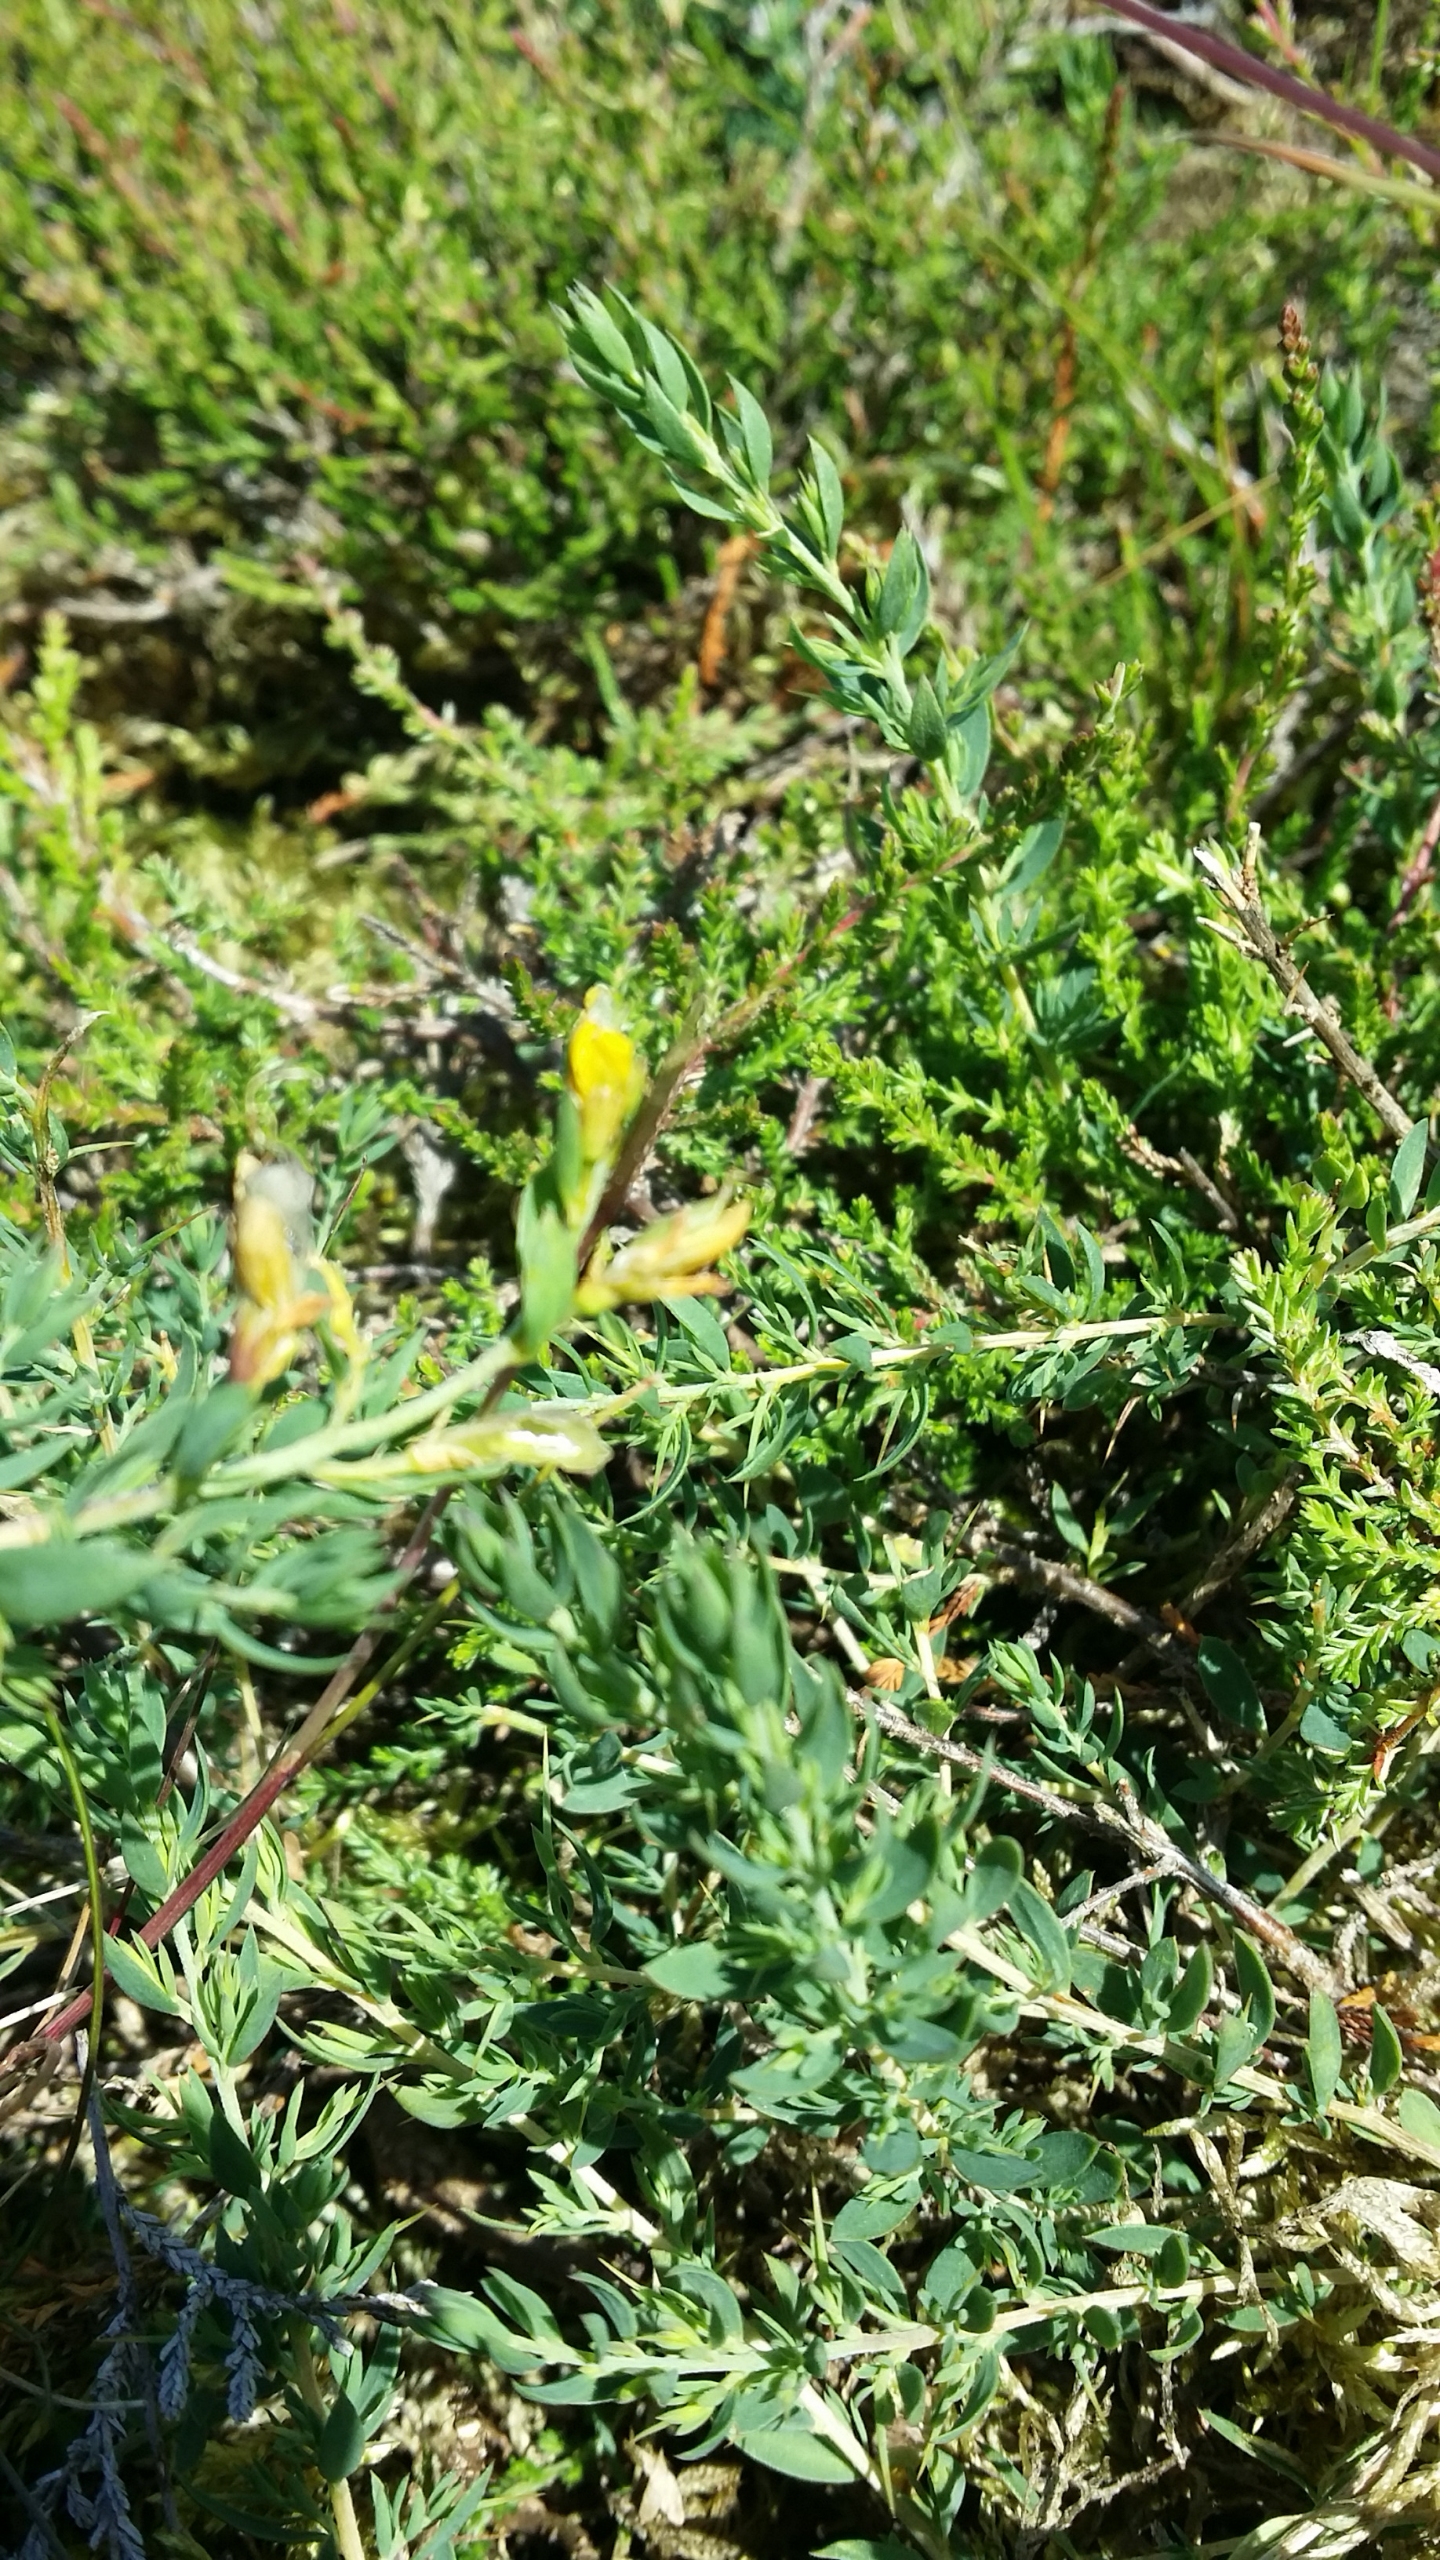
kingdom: Plantae
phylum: Tracheophyta
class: Magnoliopsida
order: Fabales
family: Fabaceae
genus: Genista
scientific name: Genista anglica
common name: Engelsk visse
